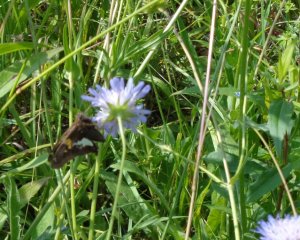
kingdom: Animalia
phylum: Arthropoda
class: Insecta
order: Lepidoptera
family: Hesperiidae
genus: Epargyreus
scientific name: Epargyreus clarus
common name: Silver-spotted Skipper
